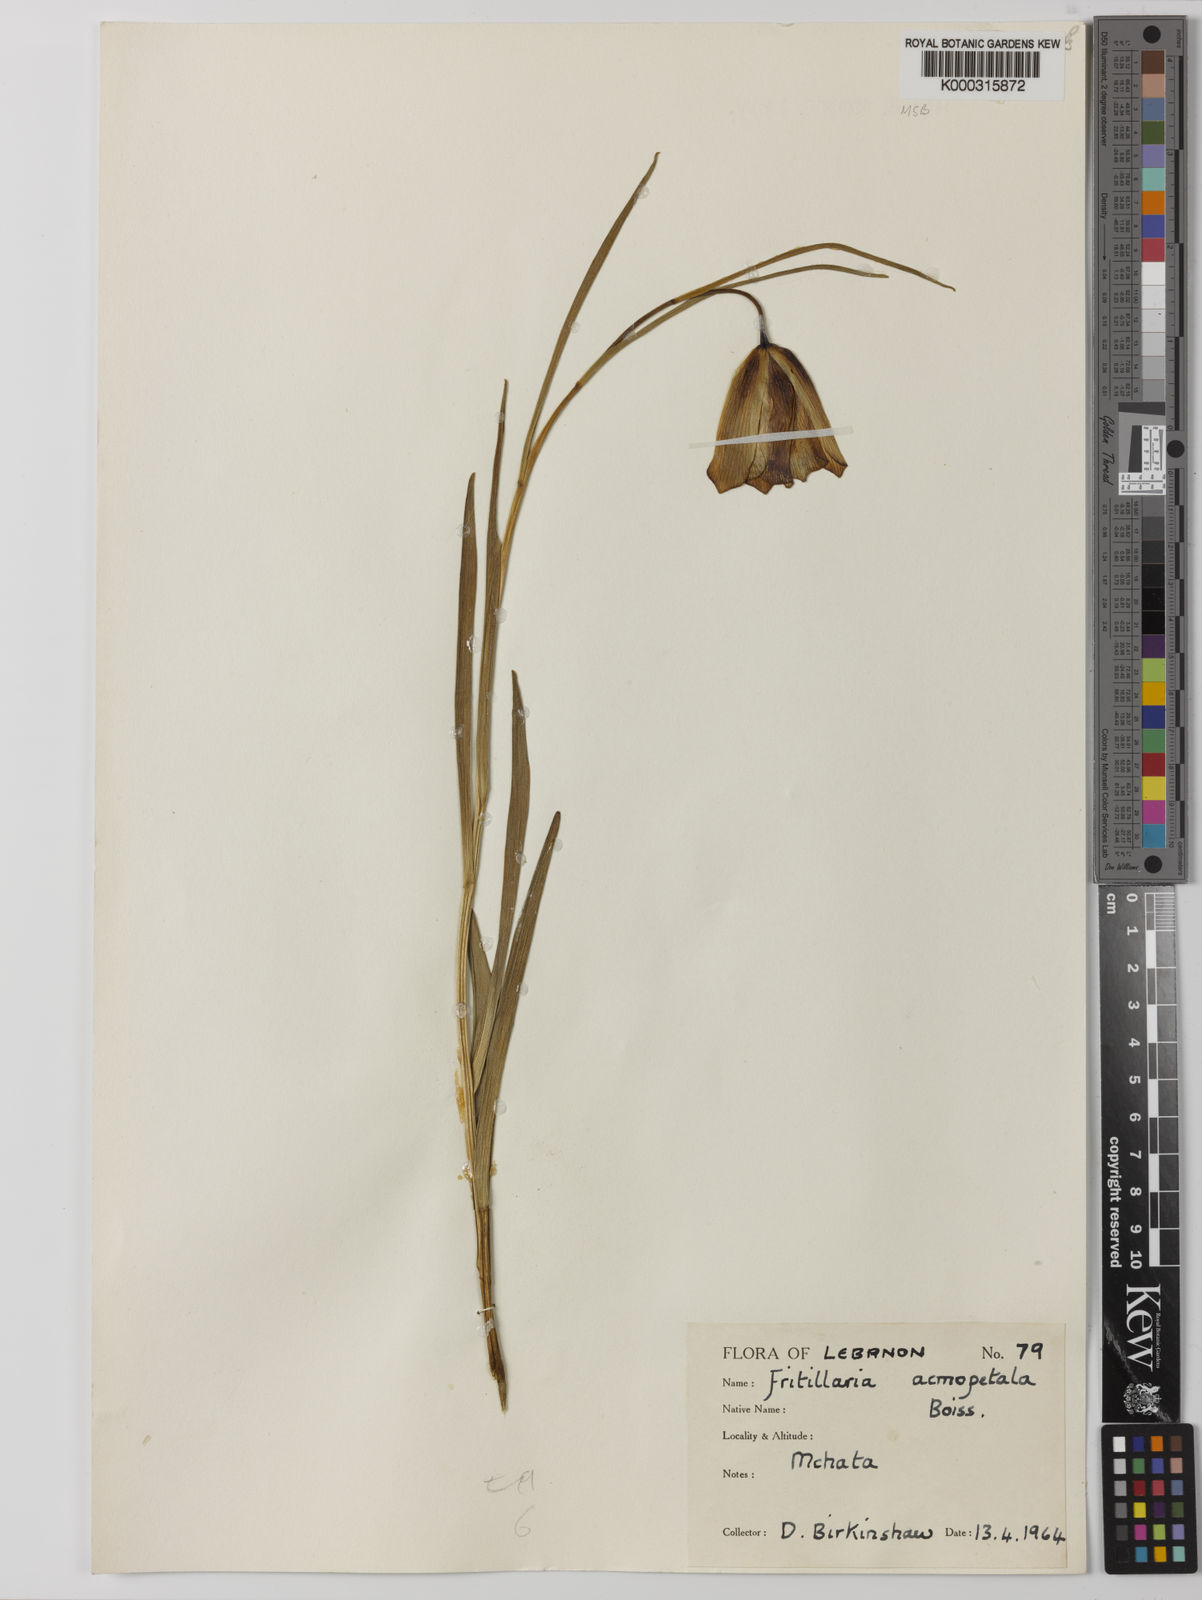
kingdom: Plantae
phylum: Tracheophyta
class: Liliopsida
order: Liliales
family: Liliaceae
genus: Fritillaria
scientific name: Fritillaria acmopetala
